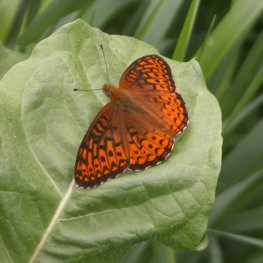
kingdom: Animalia
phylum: Arthropoda
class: Insecta
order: Lepidoptera
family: Nymphalidae
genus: Speyeria
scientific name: Speyeria atlantis
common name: Atlantis Fritillary
